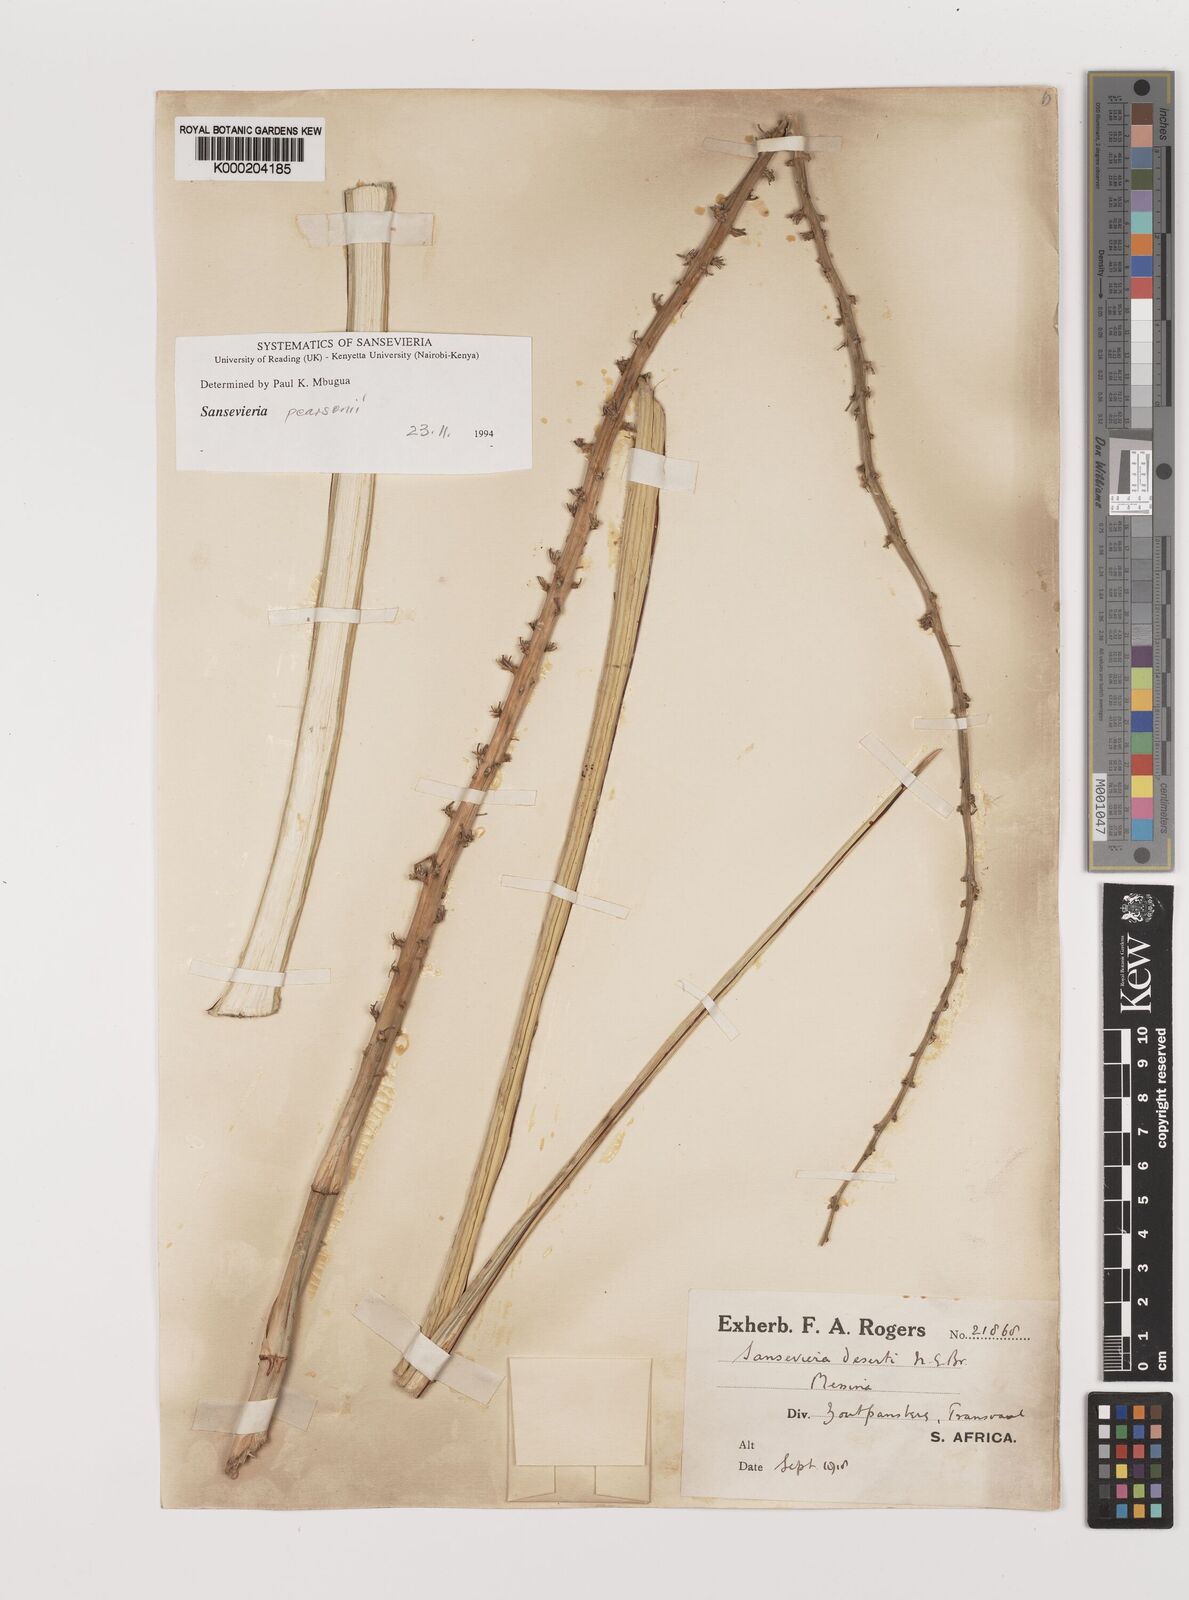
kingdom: Plantae
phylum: Tracheophyta
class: Liliopsida
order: Asparagales
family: Asparagaceae
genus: Dracaena
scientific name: Dracaena pearsonii
